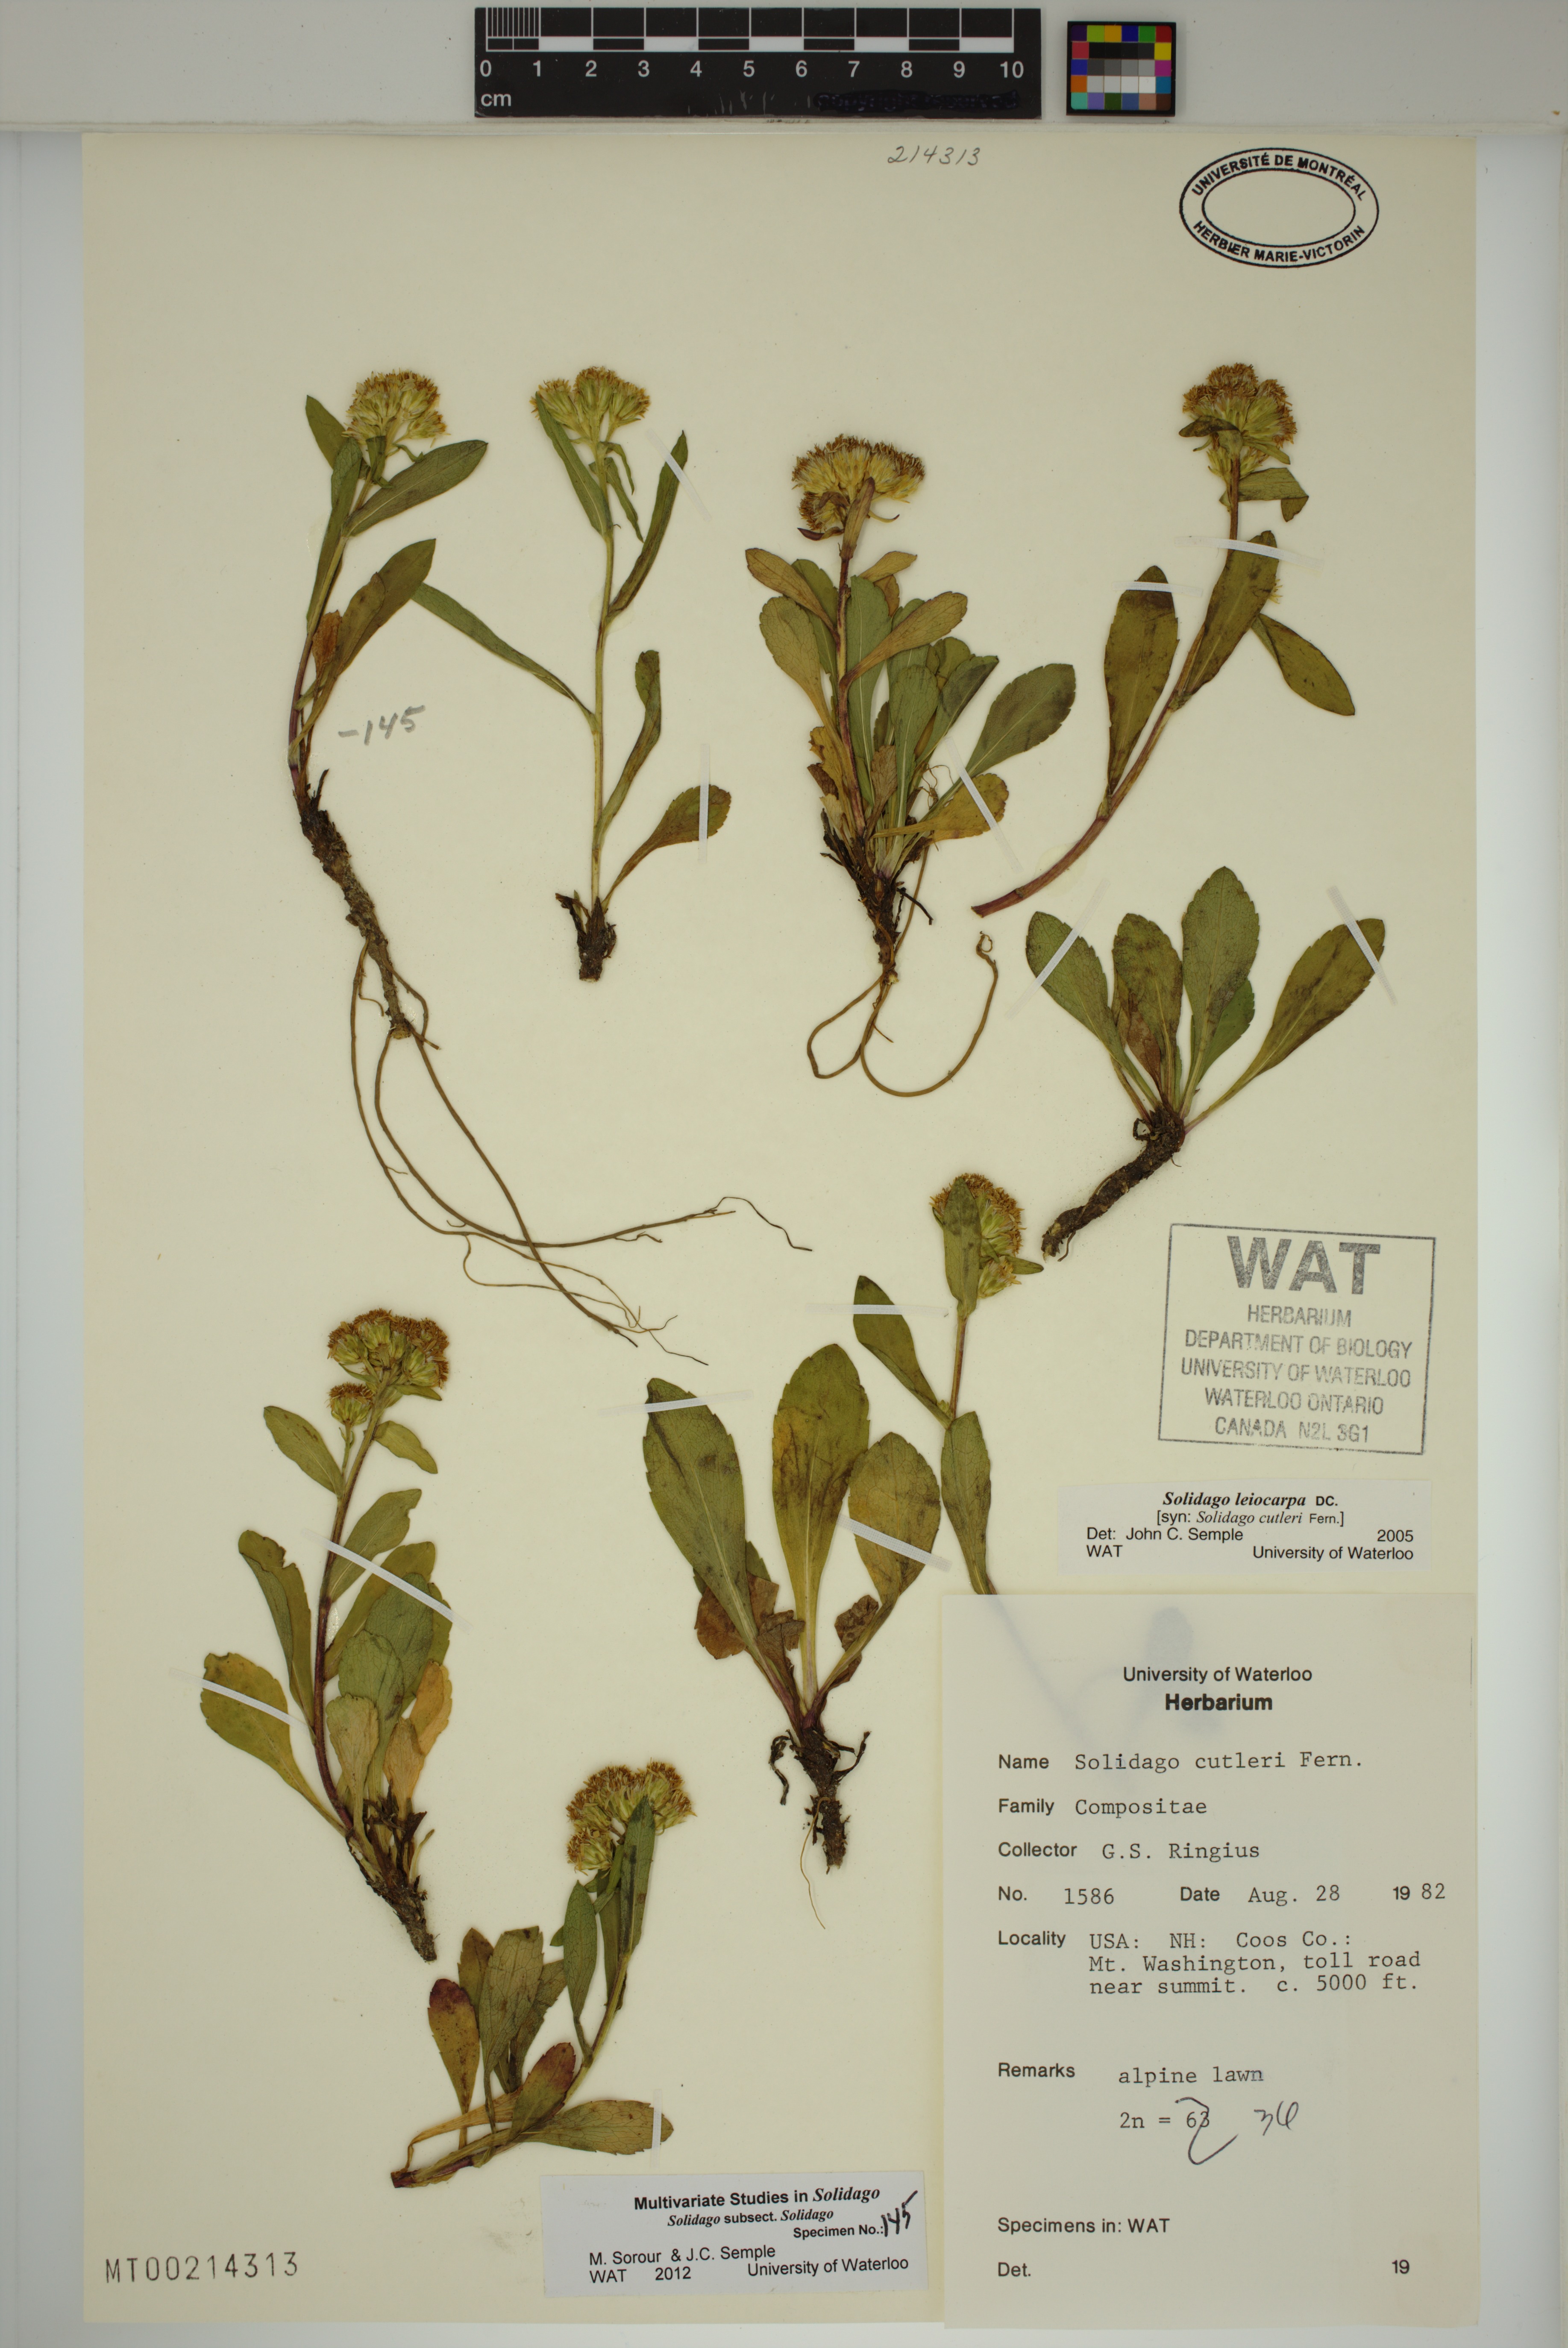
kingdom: Plantae
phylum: Tracheophyta
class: Magnoliopsida
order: Asterales
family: Asteraceae
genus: Solidago
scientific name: Solidago leiocarpa
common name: Cutler's alpine goldenrod
